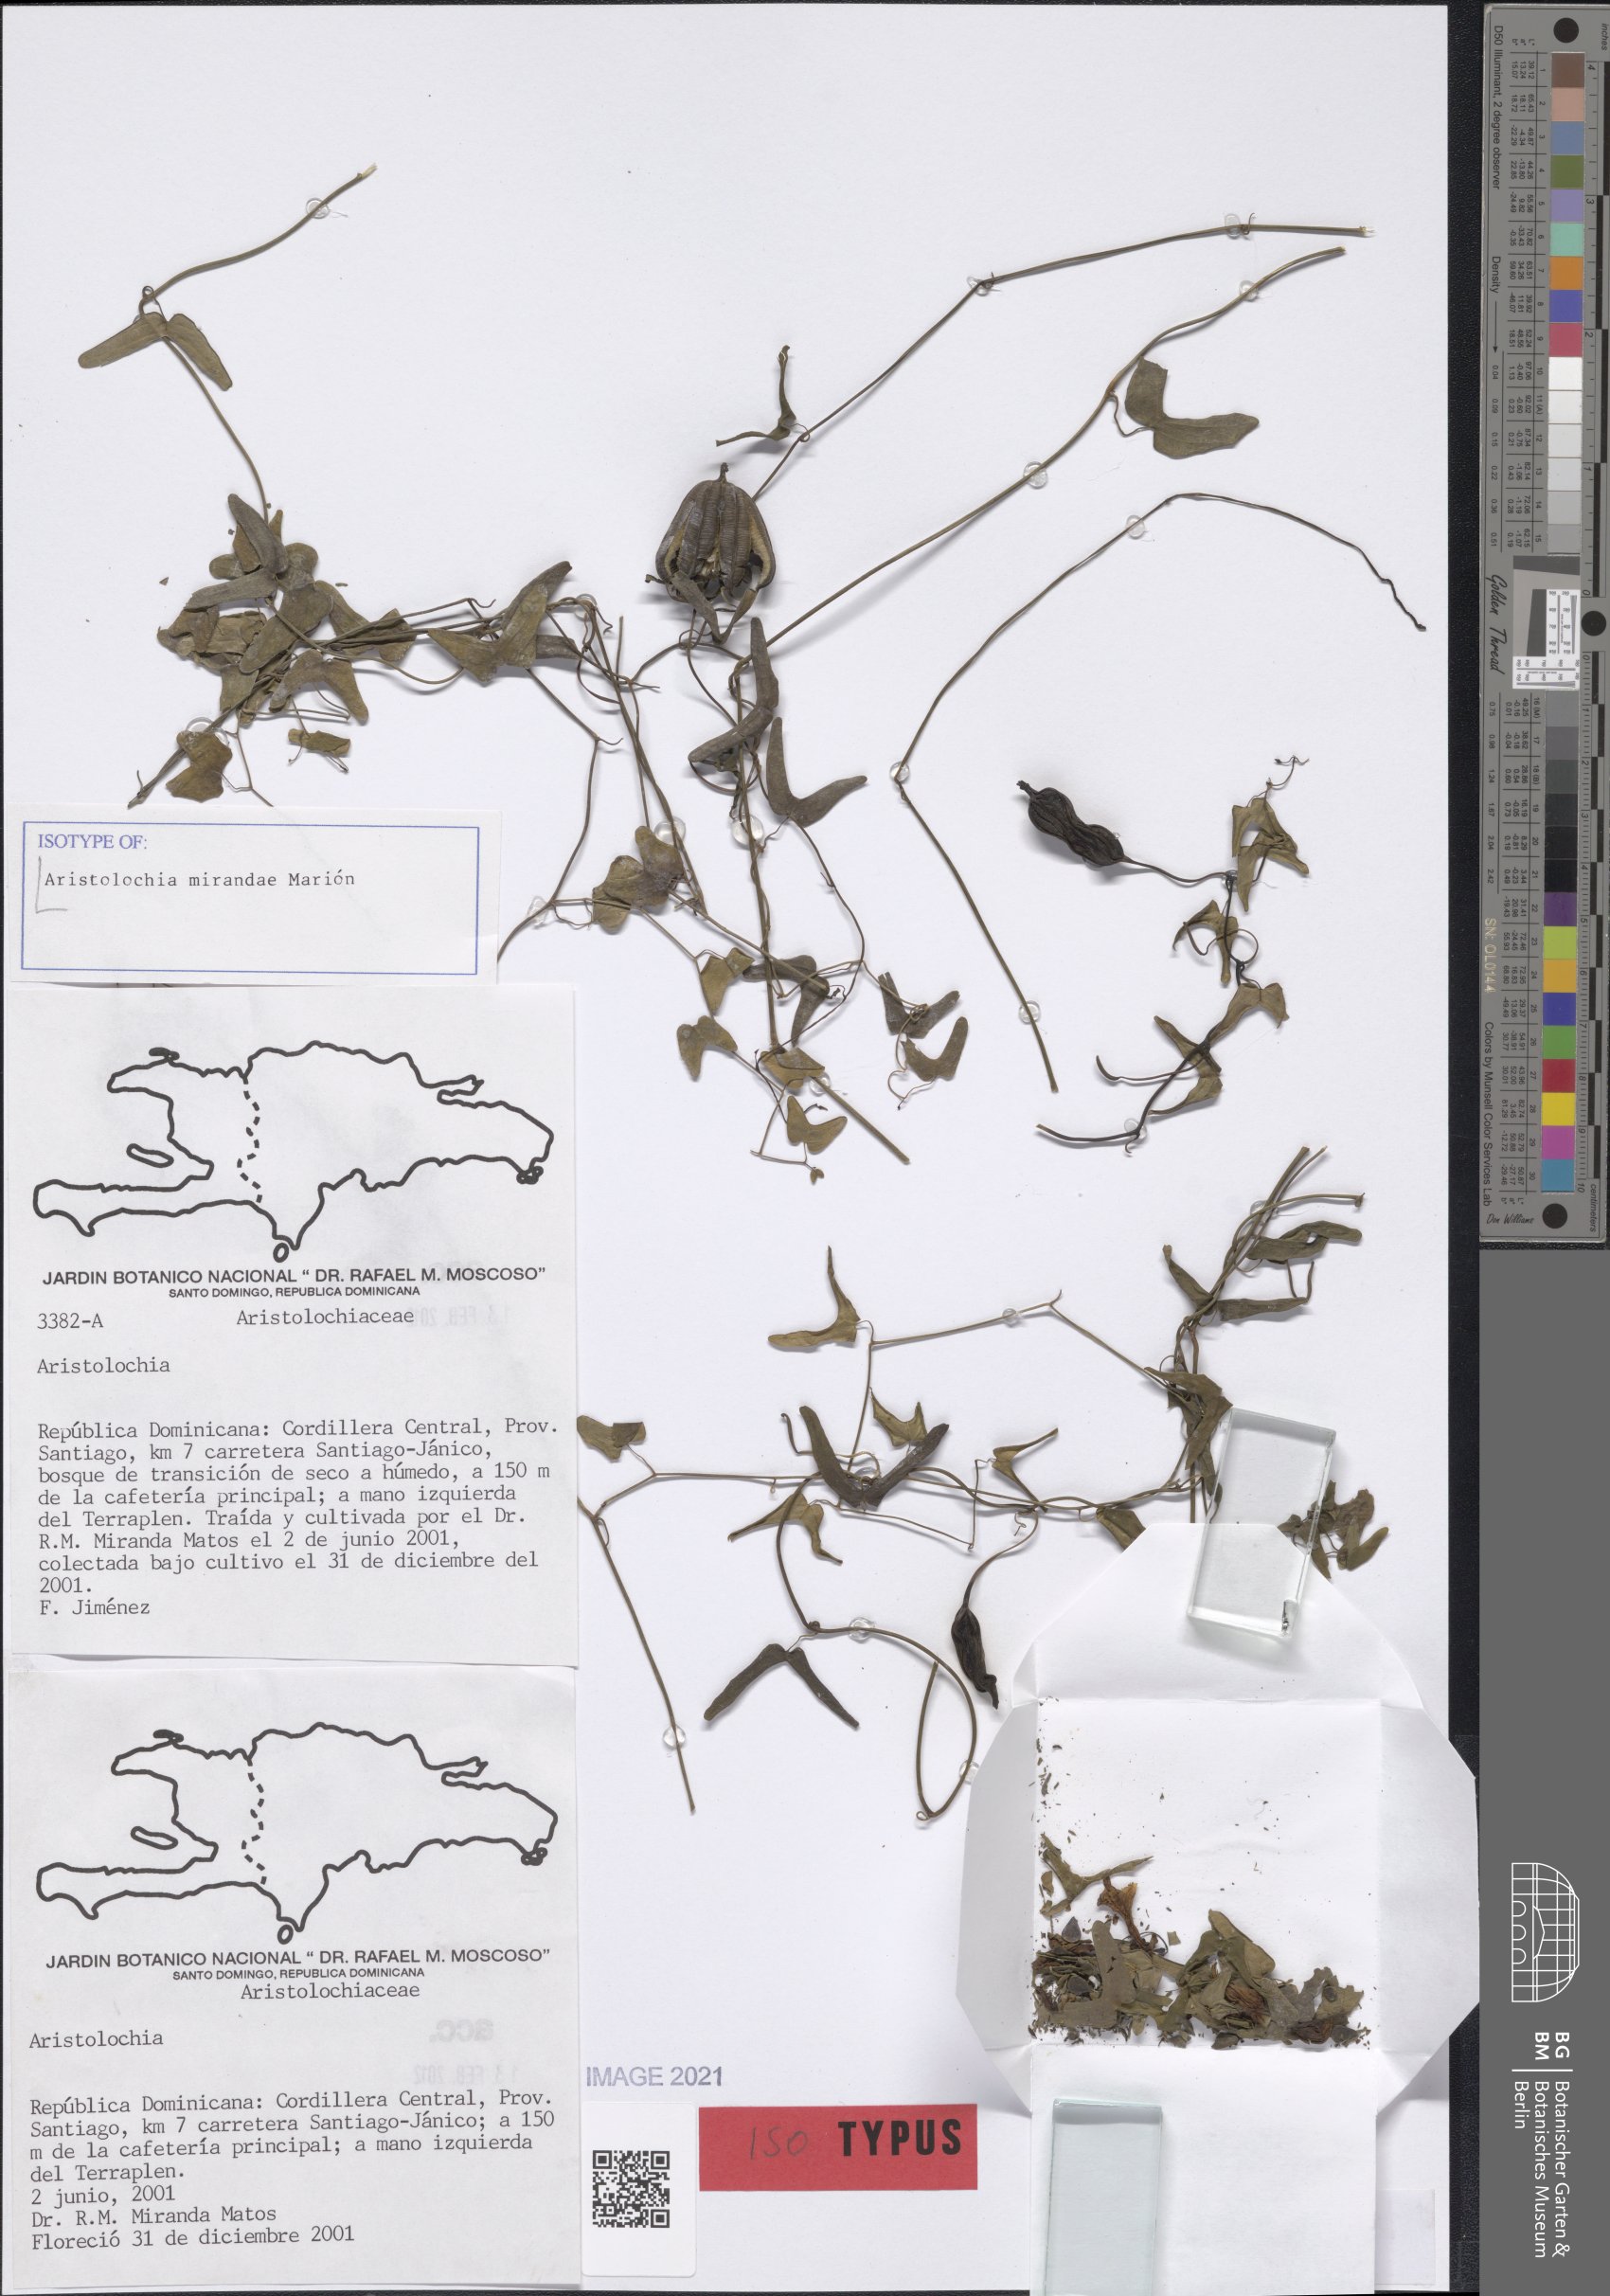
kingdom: Plantae
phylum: Tracheophyta
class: Magnoliopsida
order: Piperales
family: Aristolochiaceae
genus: Aristolochia
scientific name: Aristolochia bilobata
